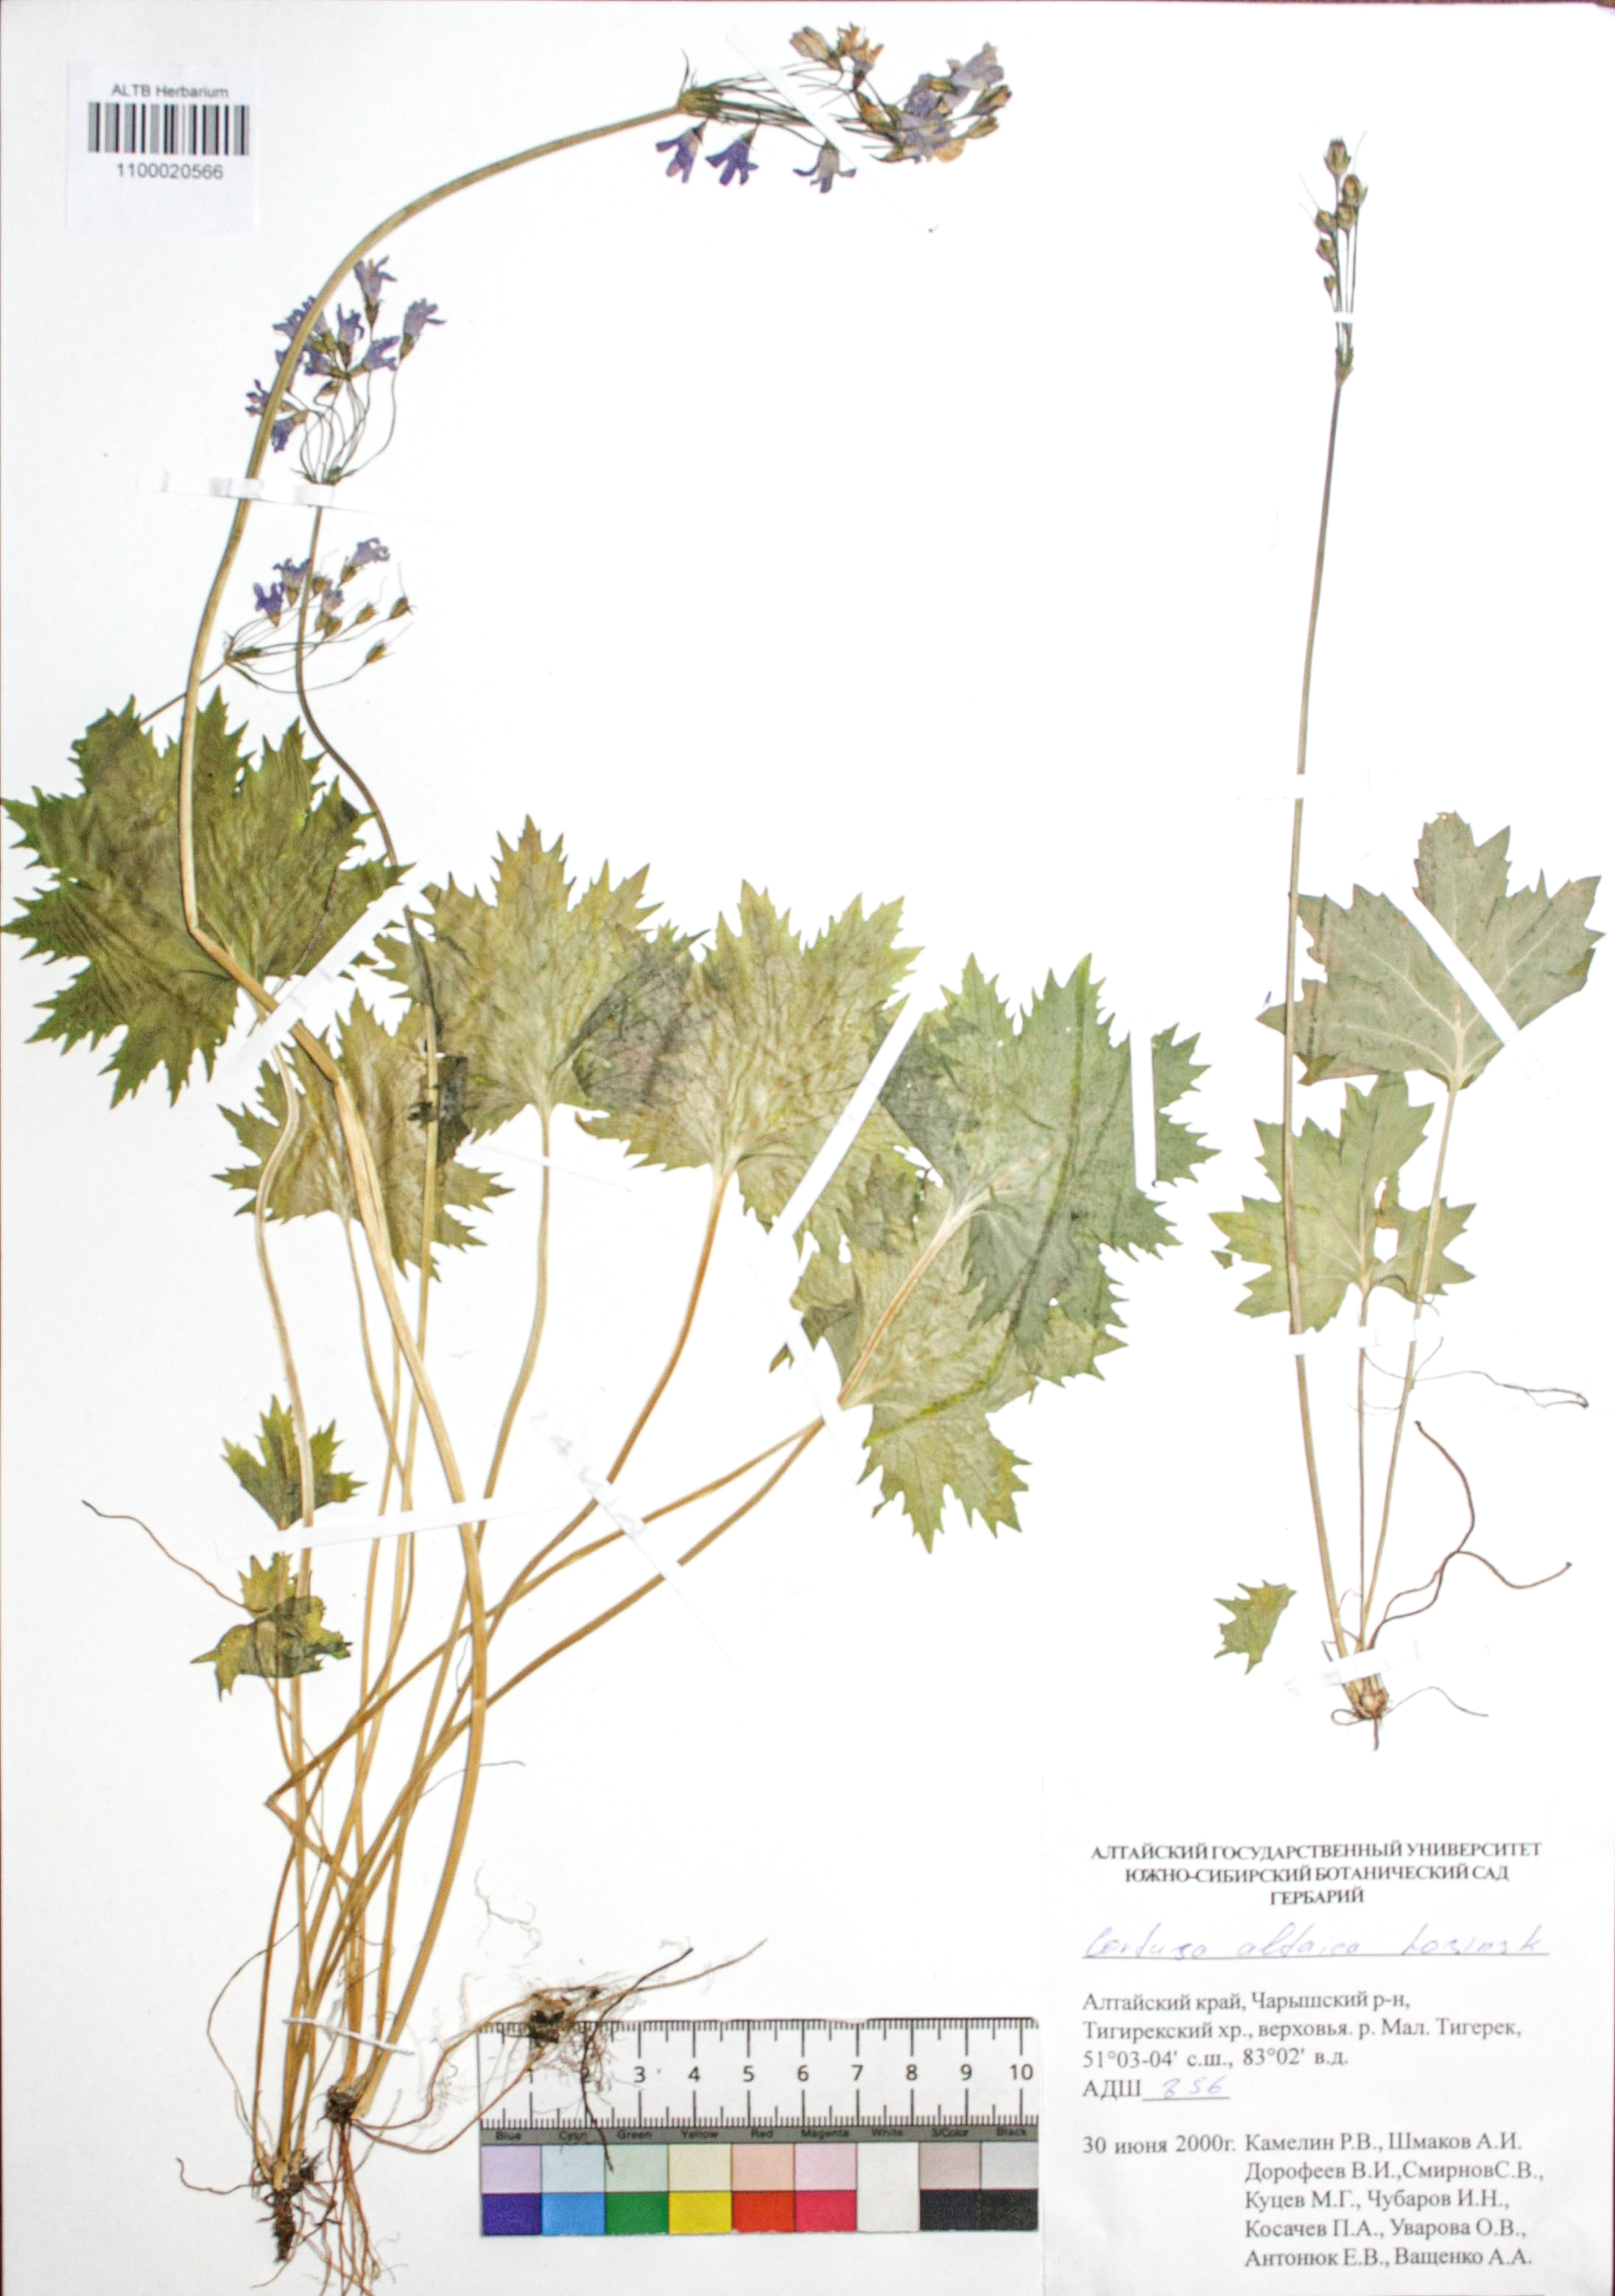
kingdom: Plantae
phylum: Tracheophyta
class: Magnoliopsida
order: Ericales
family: Primulaceae
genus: Primula
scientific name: Primula matthioli
